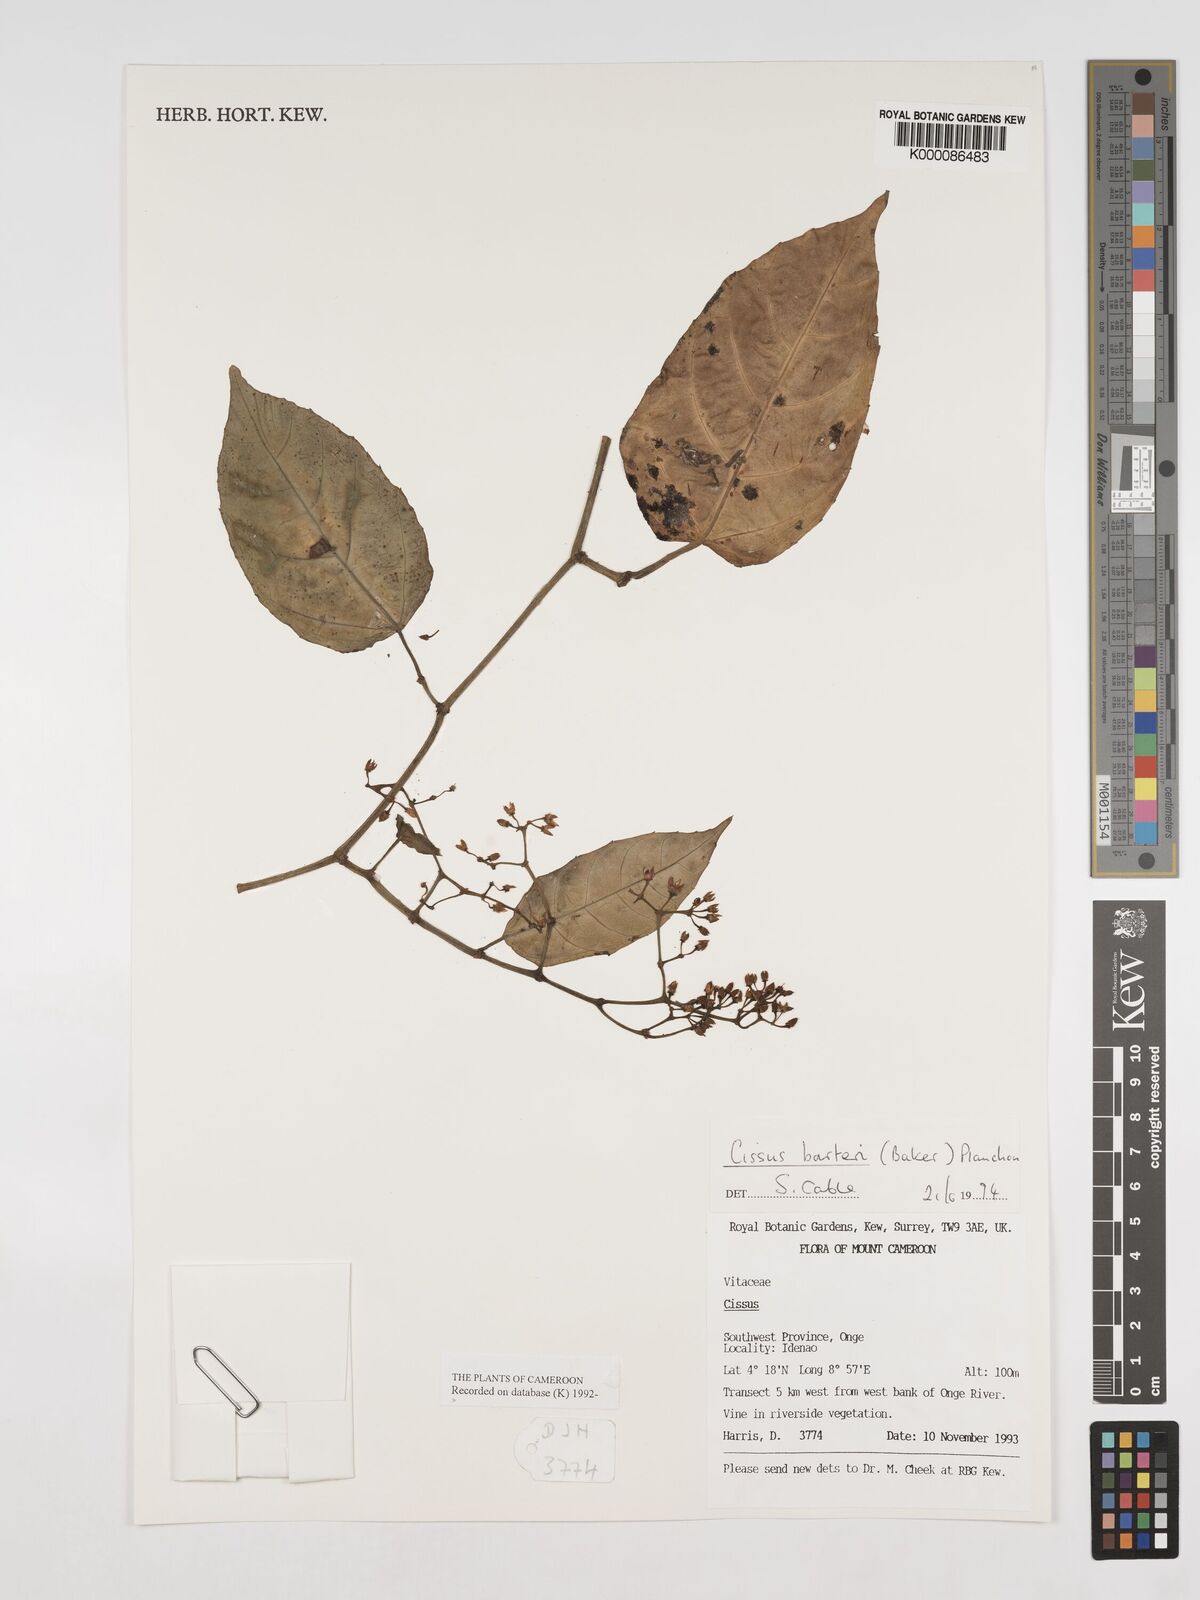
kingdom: Plantae
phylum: Tracheophyta
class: Magnoliopsida
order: Vitales
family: Vitaceae
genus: Cissus
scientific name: Cissus barteri
